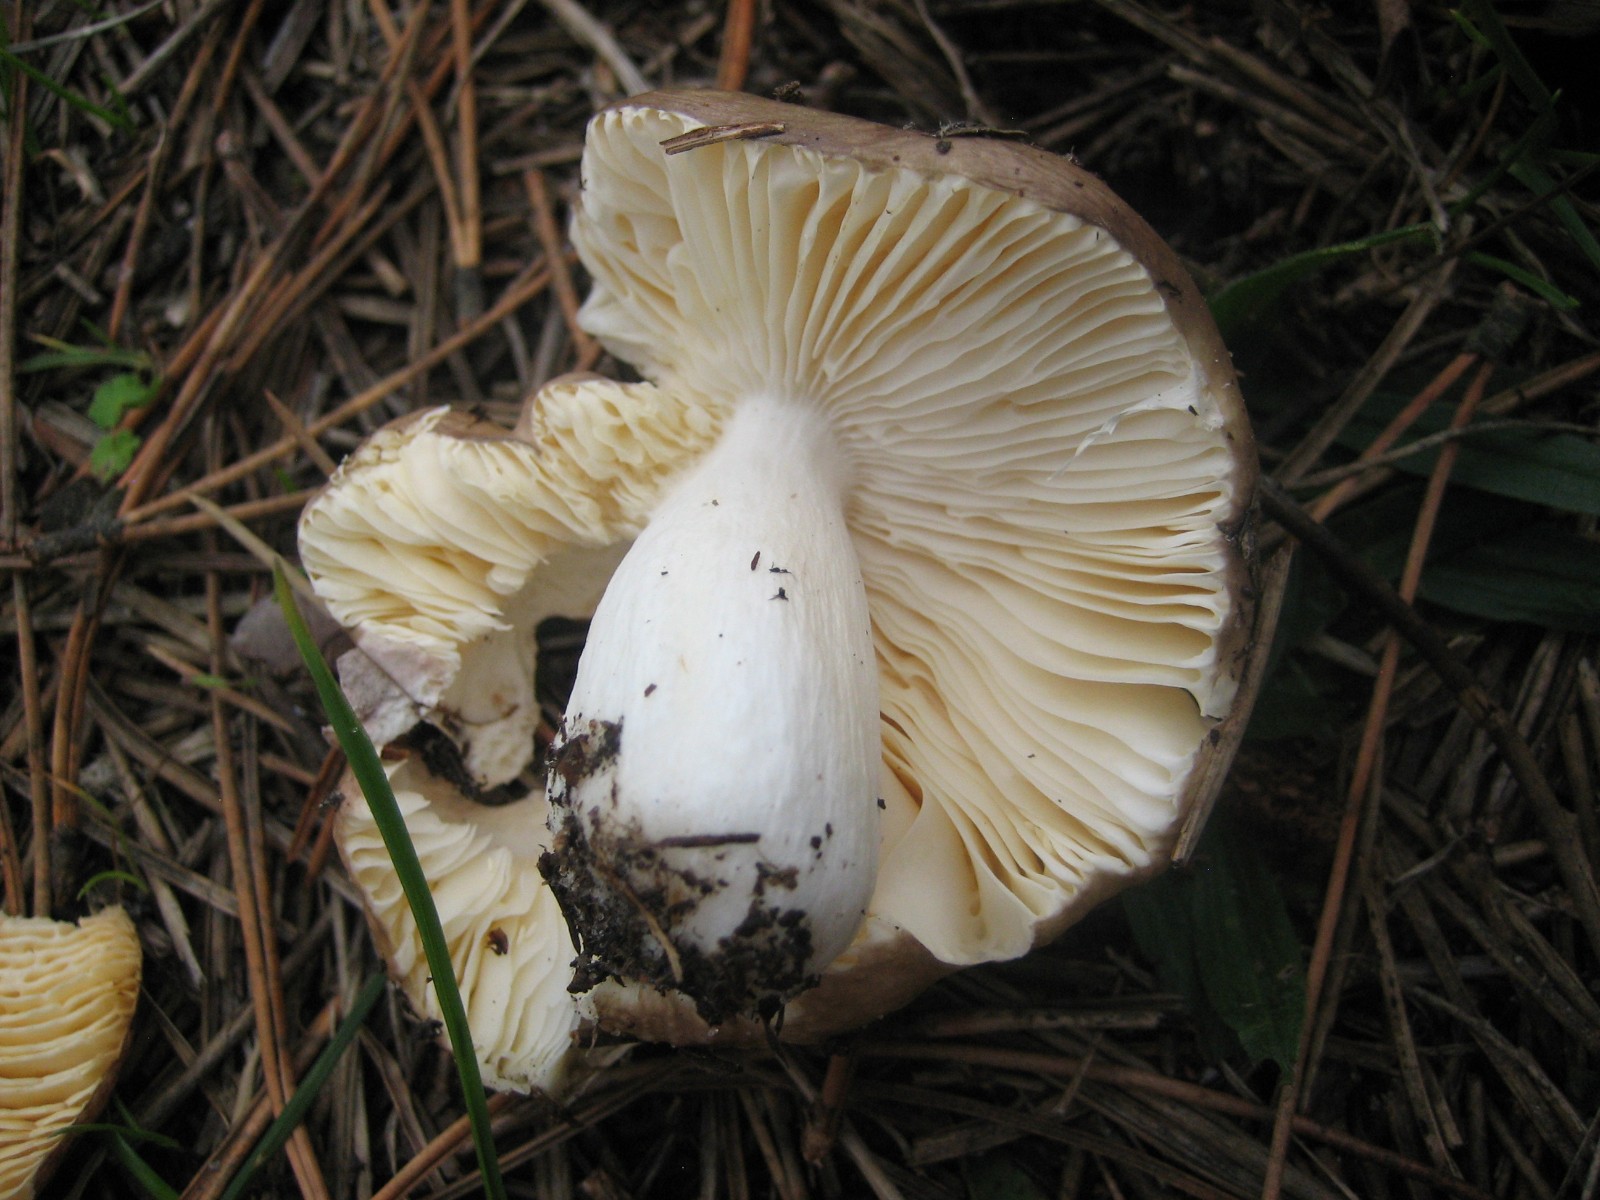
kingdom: Fungi
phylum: Basidiomycota
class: Agaricomycetes
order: Russulales
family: Russulaceae
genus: Russula
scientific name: Russula
